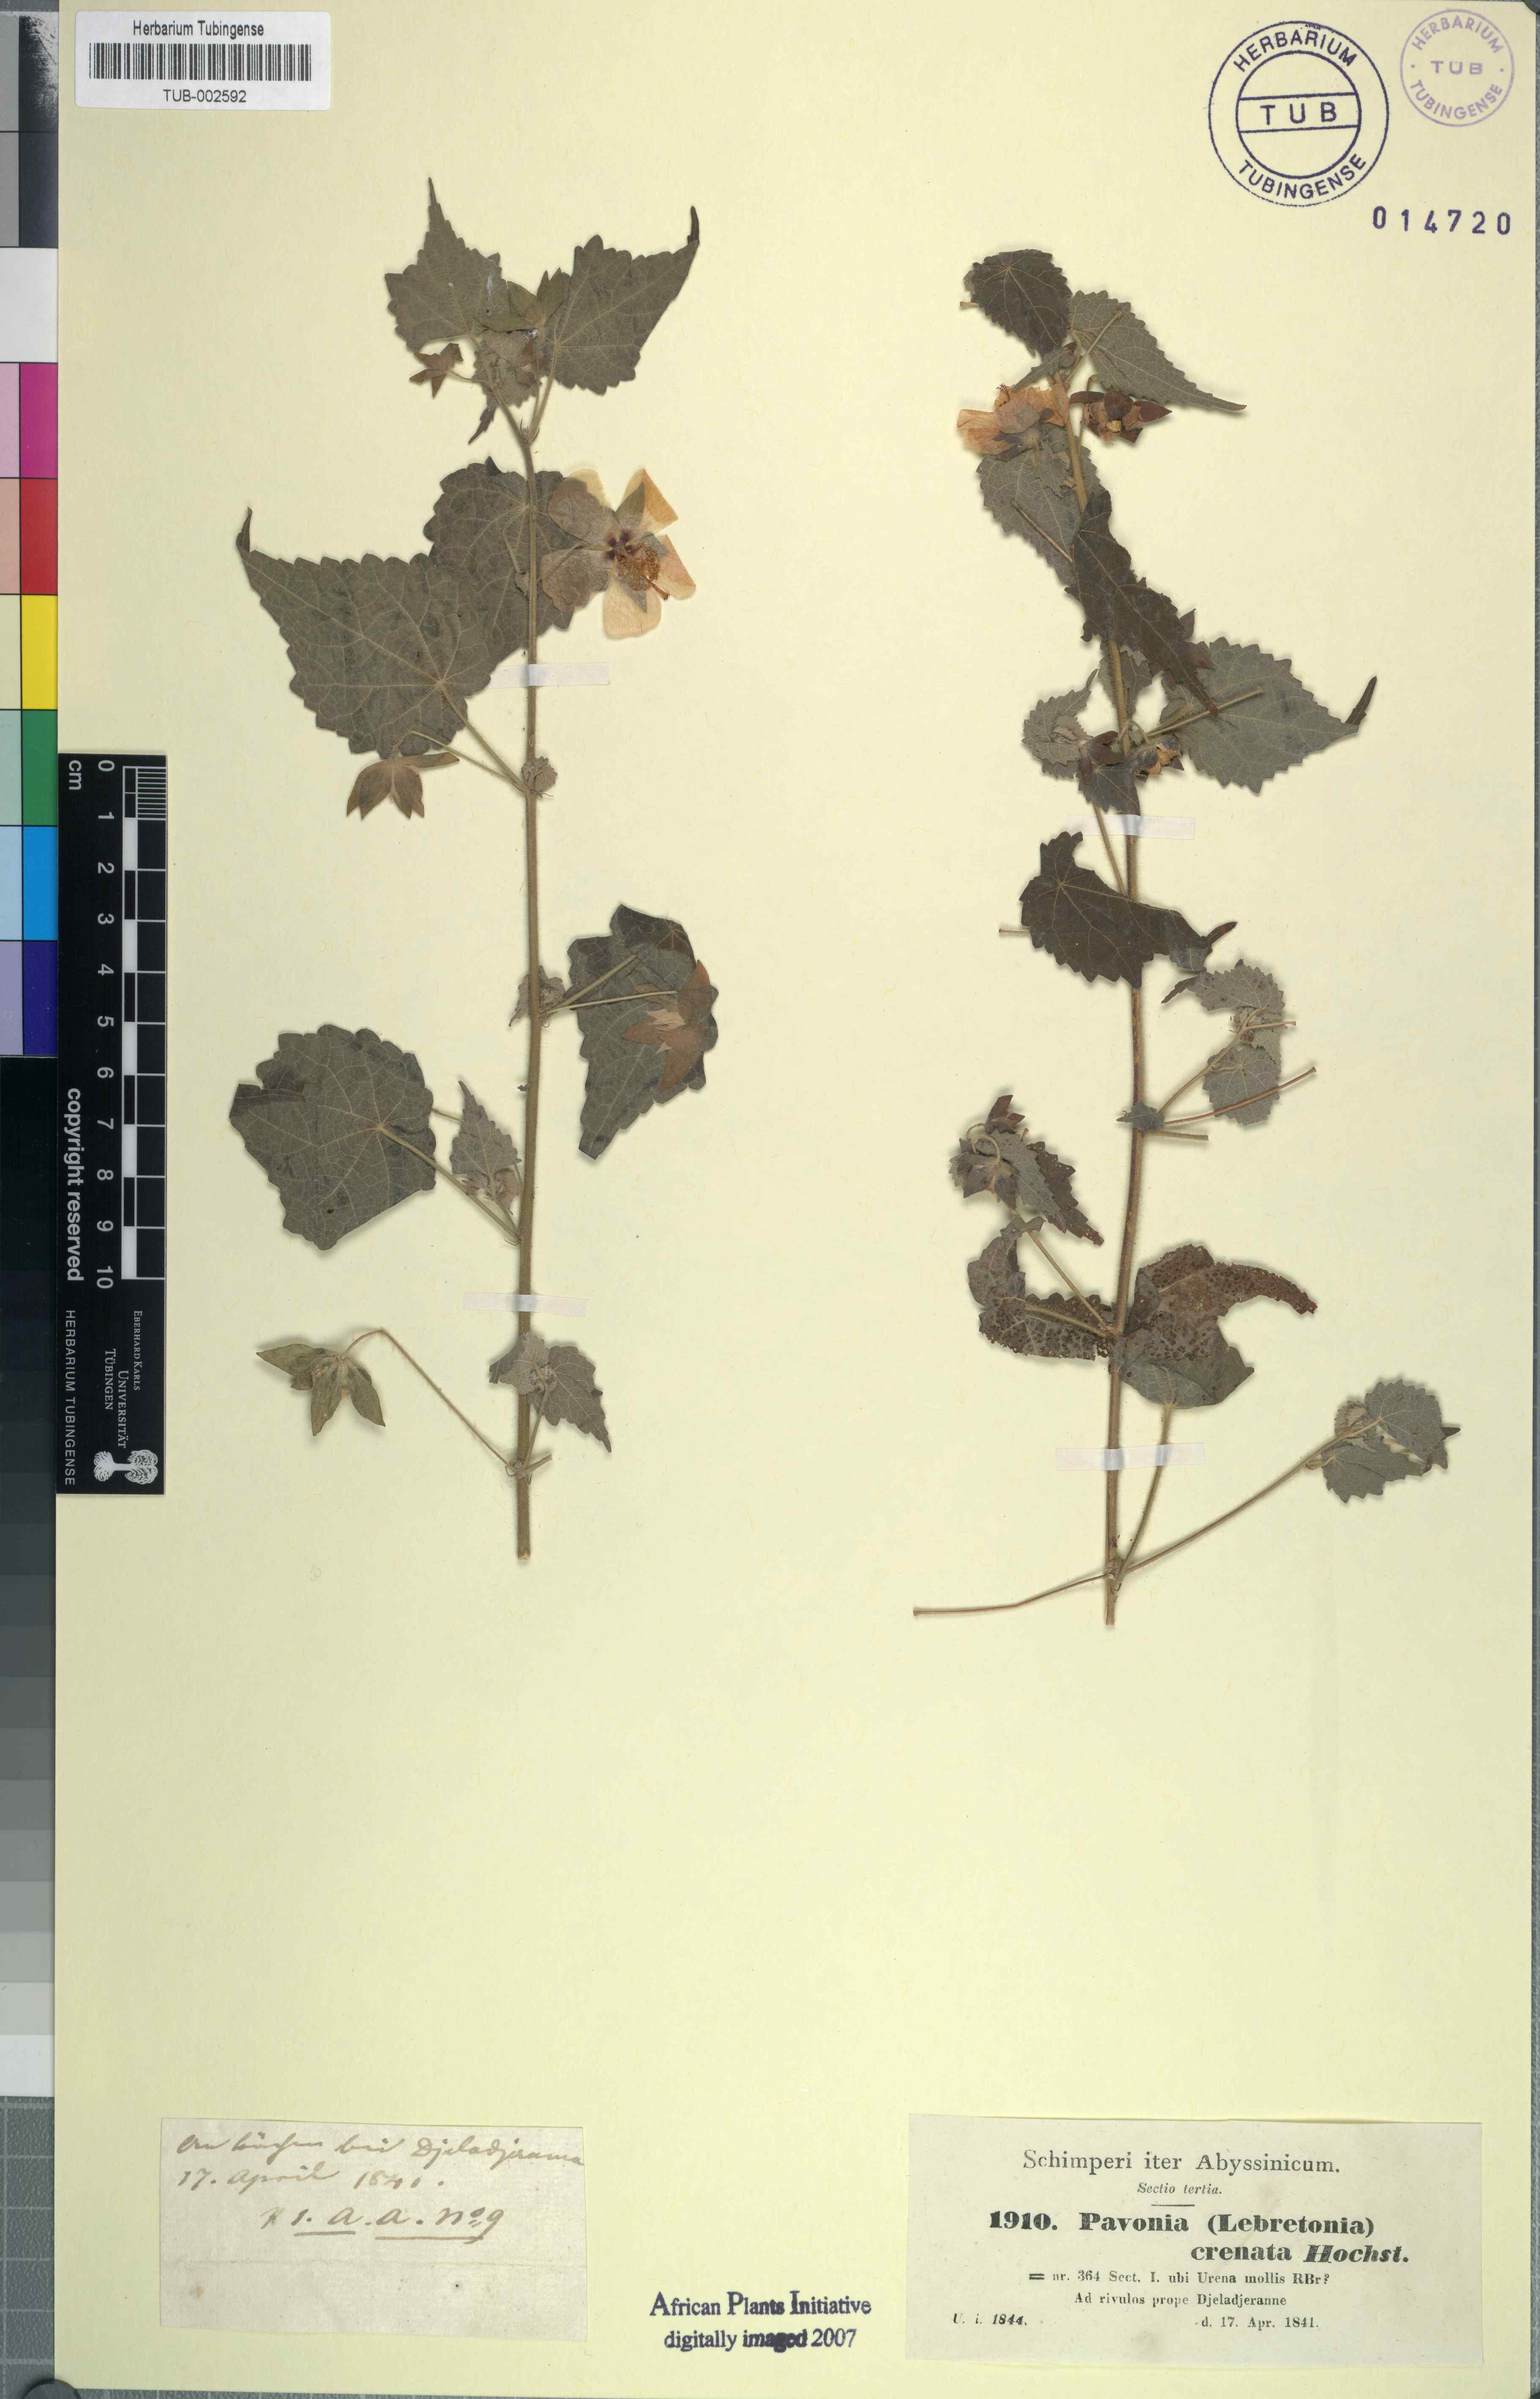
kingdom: Plantae
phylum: Tracheophyta
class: Magnoliopsida
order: Malvales
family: Malvaceae
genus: Pavonia
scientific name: Pavonia burchellii
